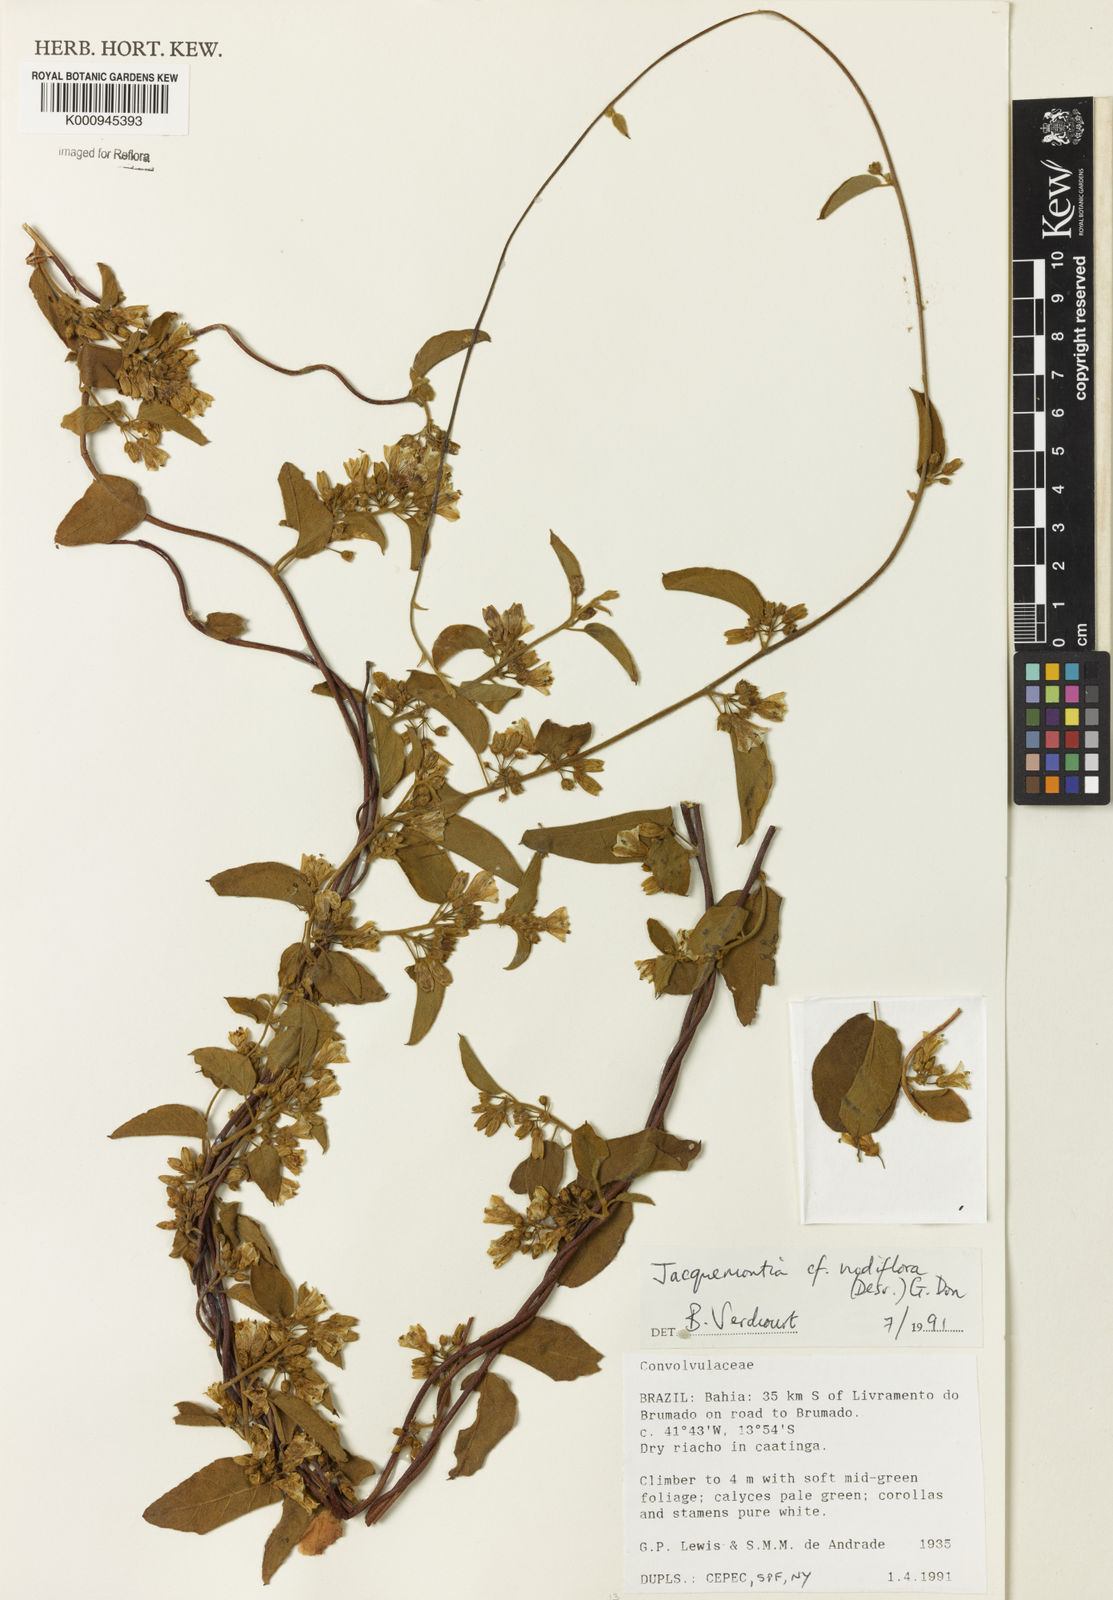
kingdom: Plantae
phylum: Tracheophyta
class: Magnoliopsida
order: Solanales
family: Convolvulaceae
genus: Jacquemontia
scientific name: Jacquemontia nodiflora
